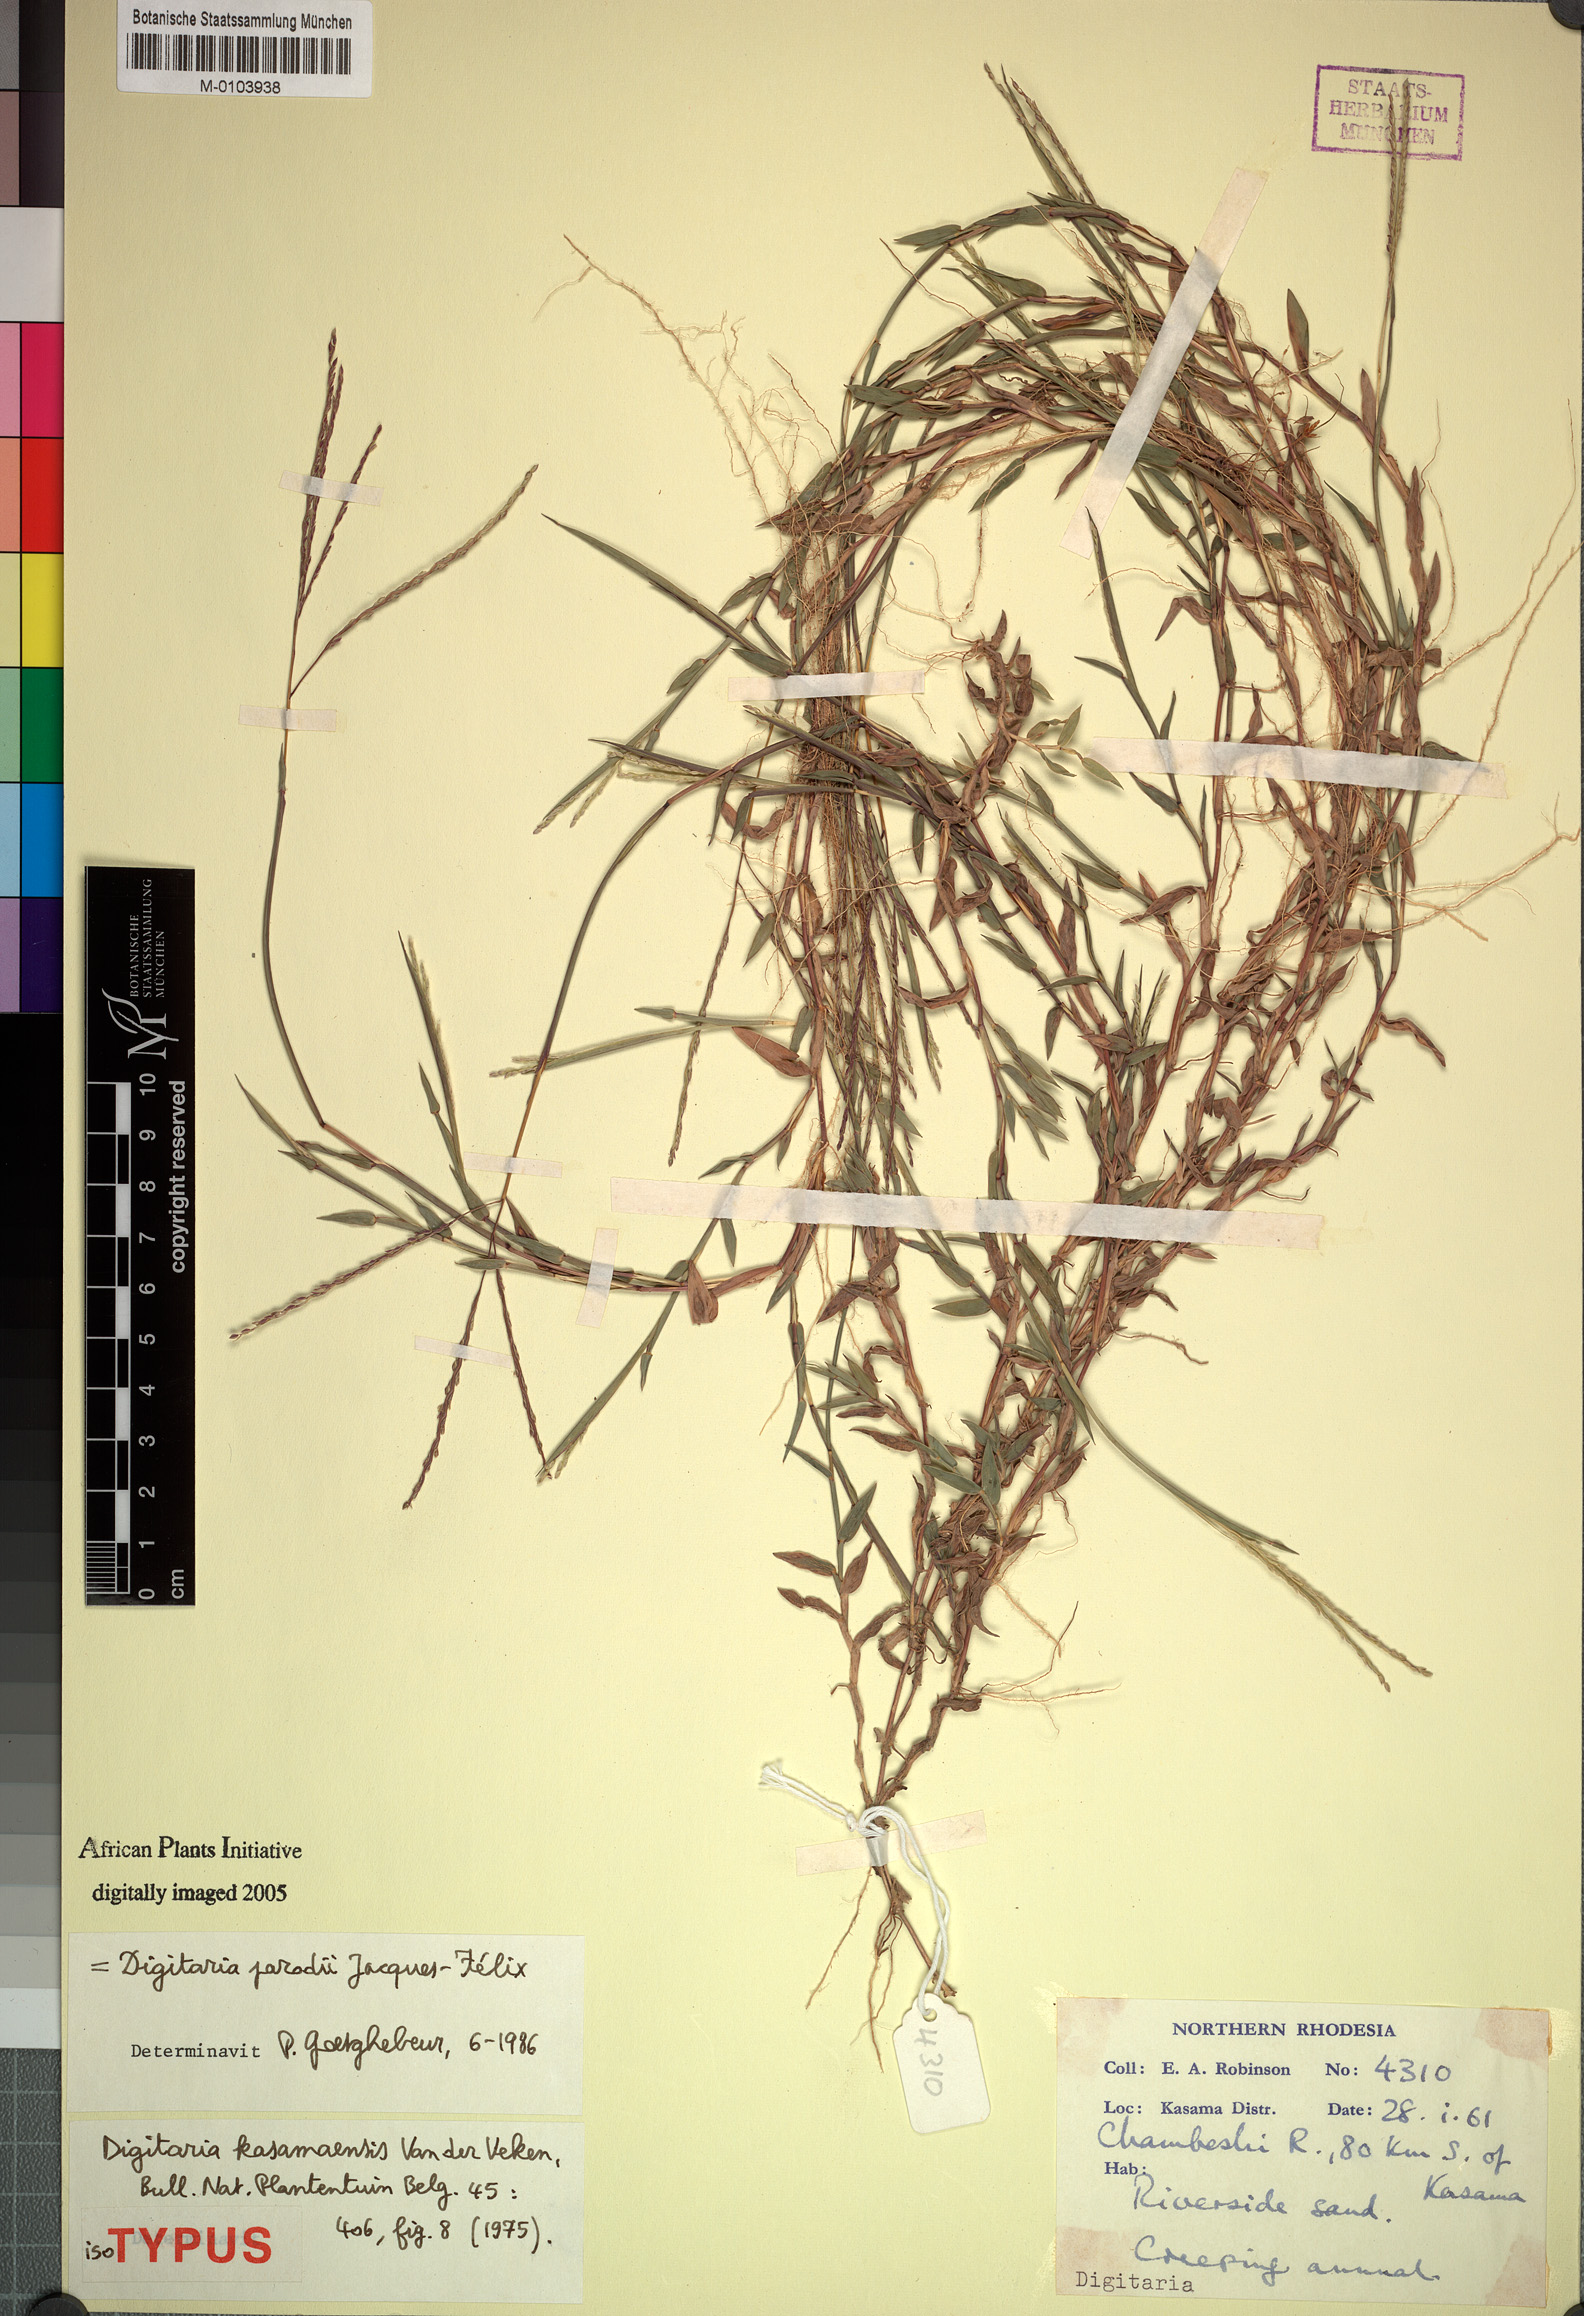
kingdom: Plantae
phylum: Tracheophyta
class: Liliopsida
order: Poales
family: Poaceae
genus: Digitaria
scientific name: Digitaria parodii
